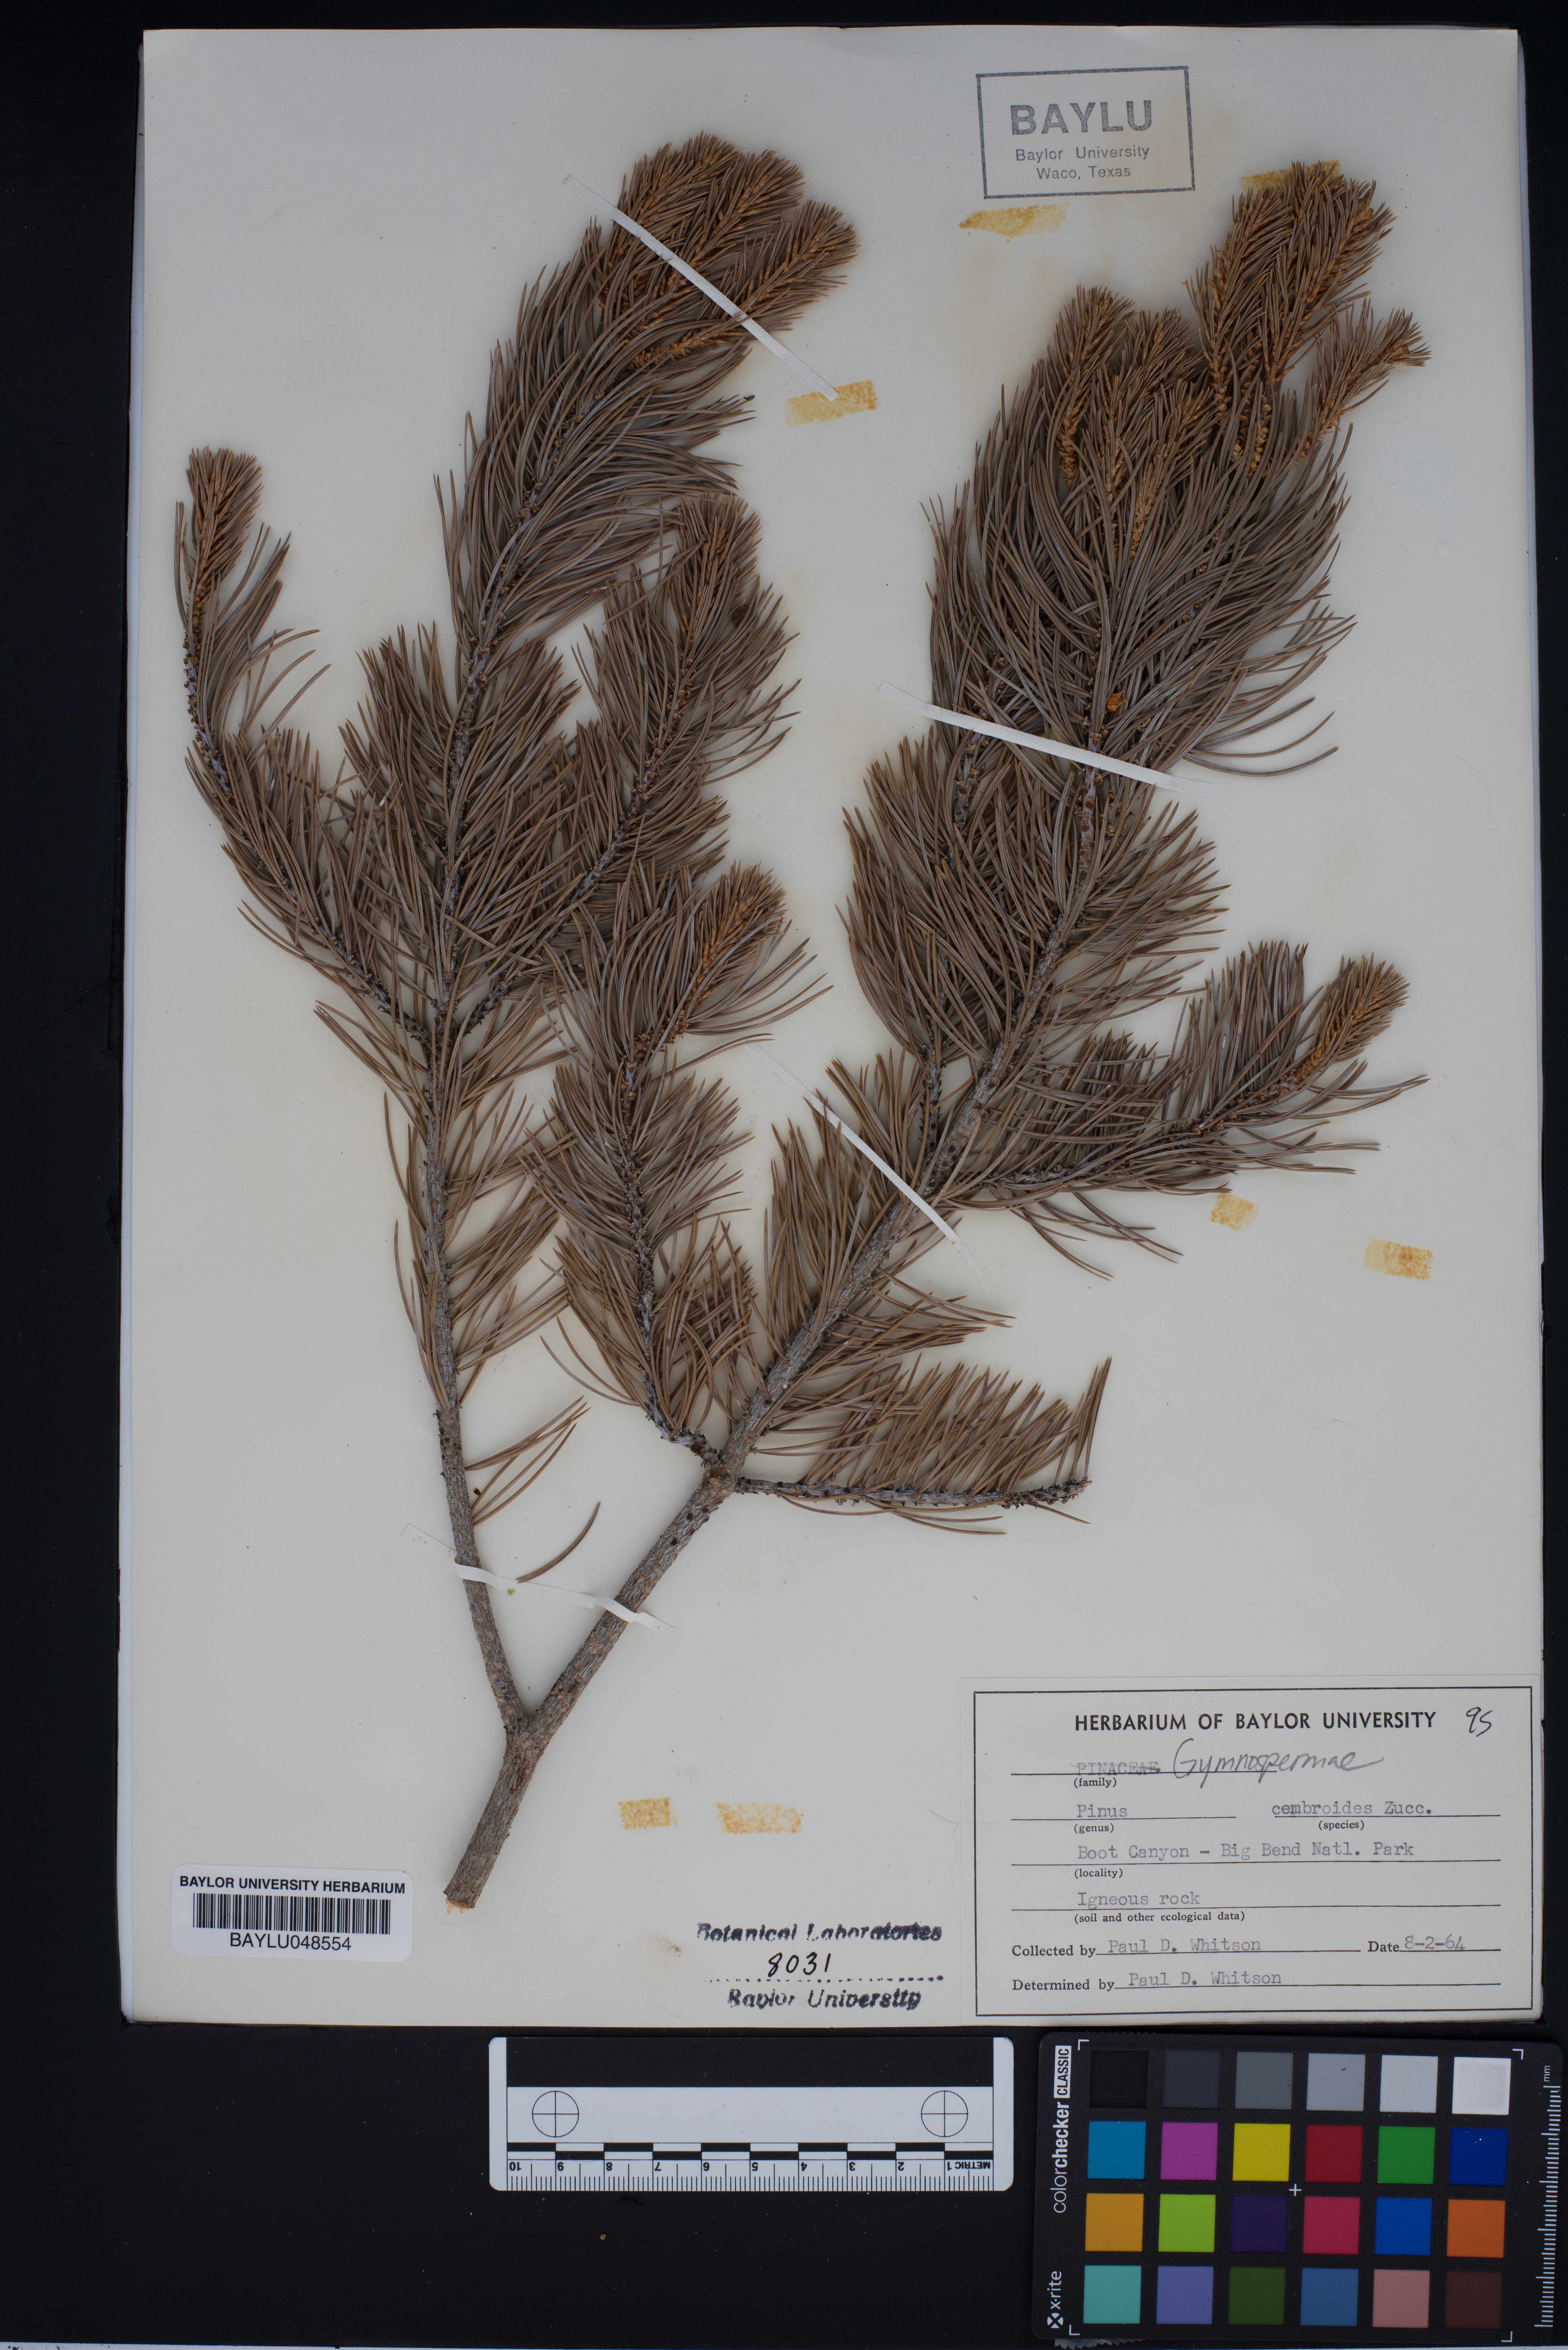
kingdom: Plantae
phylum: Tracheophyta
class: Pinopsida
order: Pinales
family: Pinaceae
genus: Pinus
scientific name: Pinus cembroides
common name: Mexican nut pine
